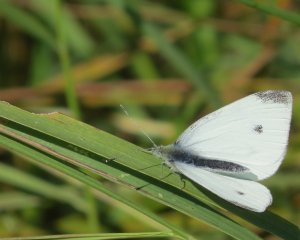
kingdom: Animalia
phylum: Arthropoda
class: Insecta
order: Lepidoptera
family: Pieridae
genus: Pieris
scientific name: Pieris rapae
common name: Cabbage White
